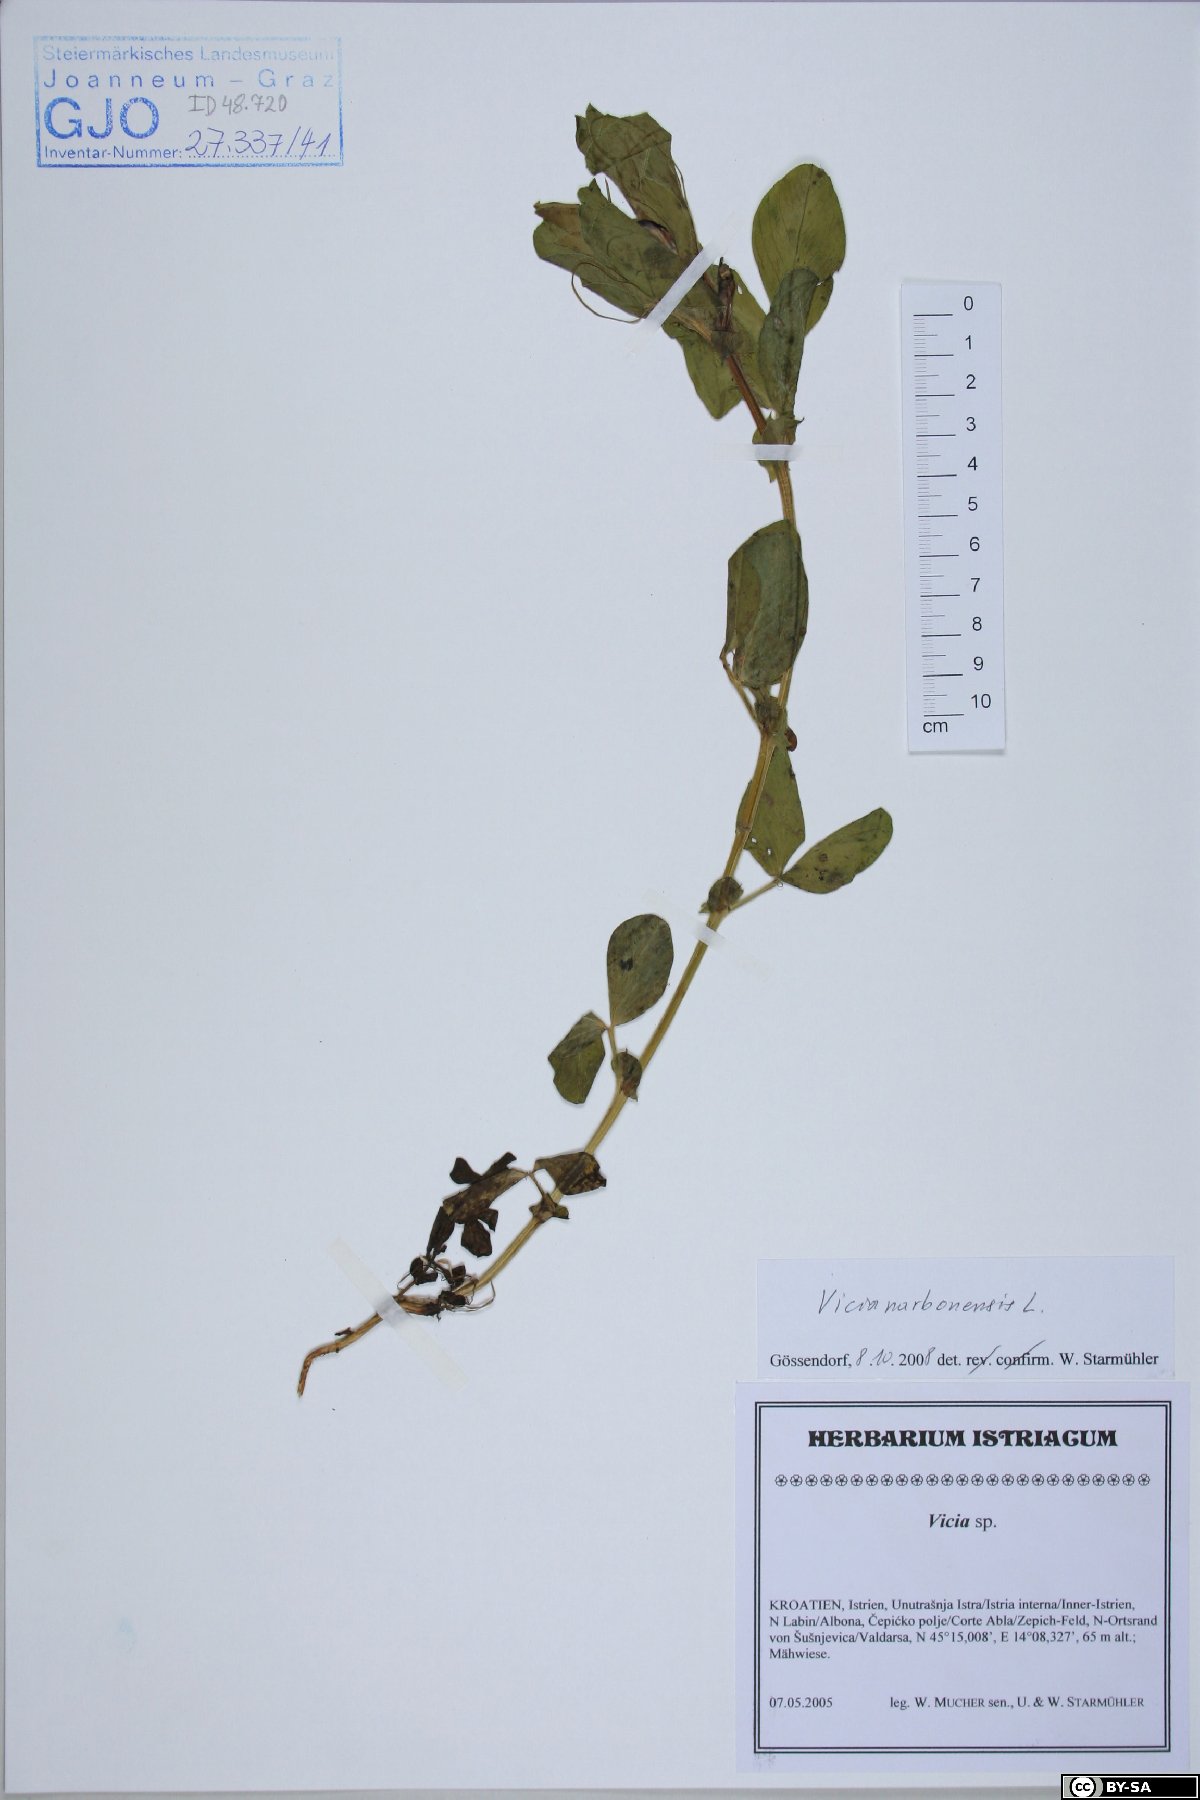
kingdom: Plantae
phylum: Tracheophyta
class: Magnoliopsida
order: Fabales
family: Fabaceae
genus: Vicia
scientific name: Vicia narbonensis
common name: Narbonne vetch
